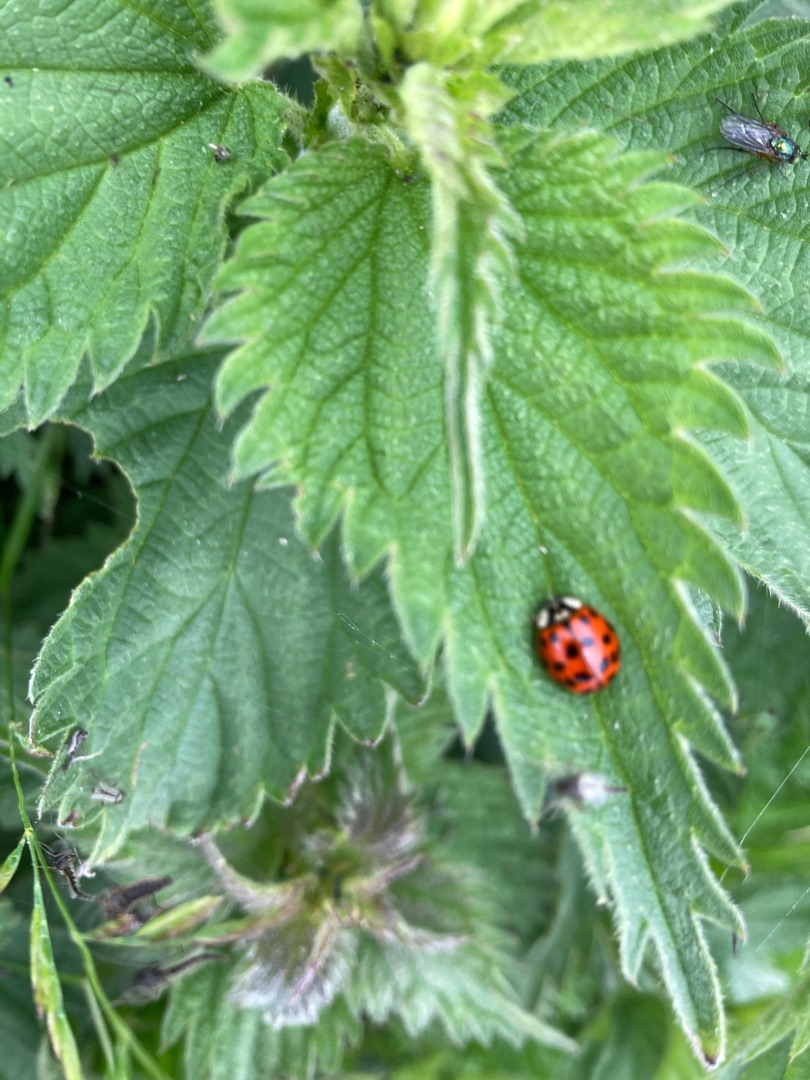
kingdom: Animalia
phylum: Arthropoda
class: Insecta
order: Coleoptera
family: Coccinellidae
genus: Harmonia
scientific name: Harmonia axyridis
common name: Harlekinmariehøne
